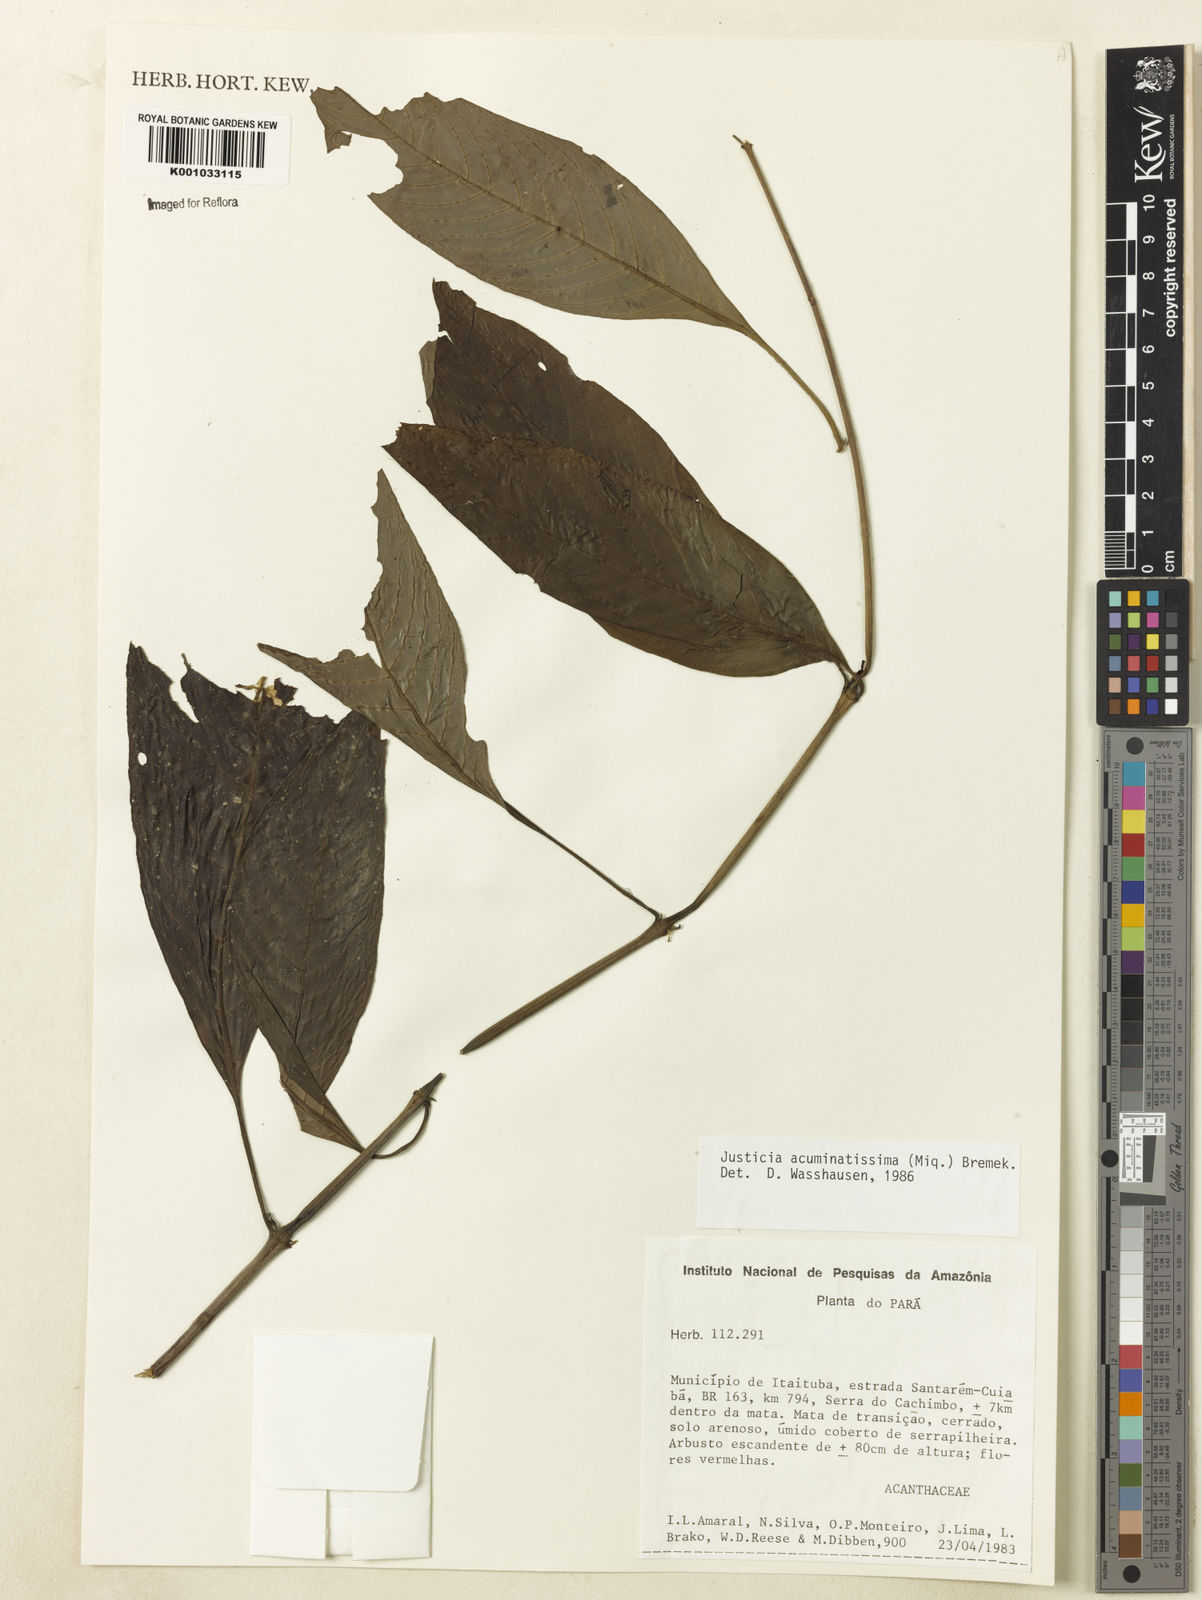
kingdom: Plantae
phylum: Tracheophyta
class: Magnoliopsida
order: Lamiales
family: Acanthaceae
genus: Dianthera
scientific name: Dianthera calycina
